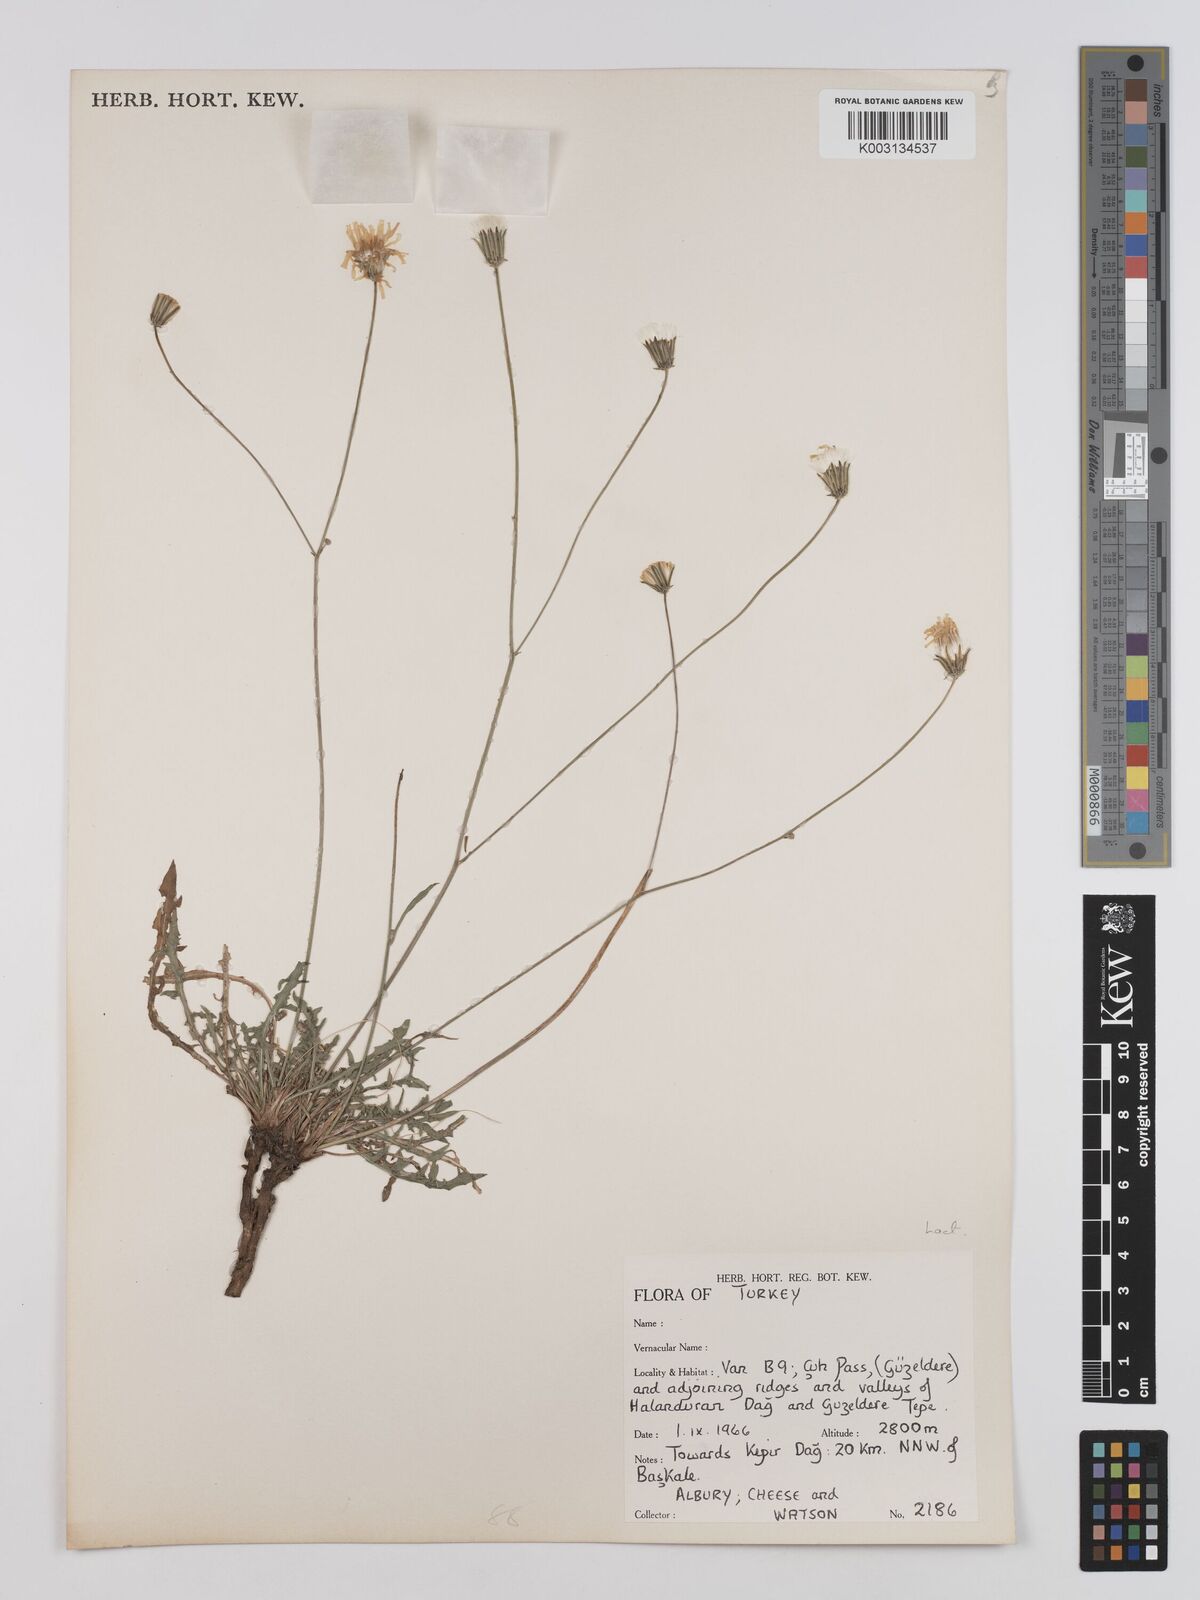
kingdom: Plantae
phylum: Tracheophyta
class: Magnoliopsida
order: Asterales
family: Asteraceae
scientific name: Asteraceae
